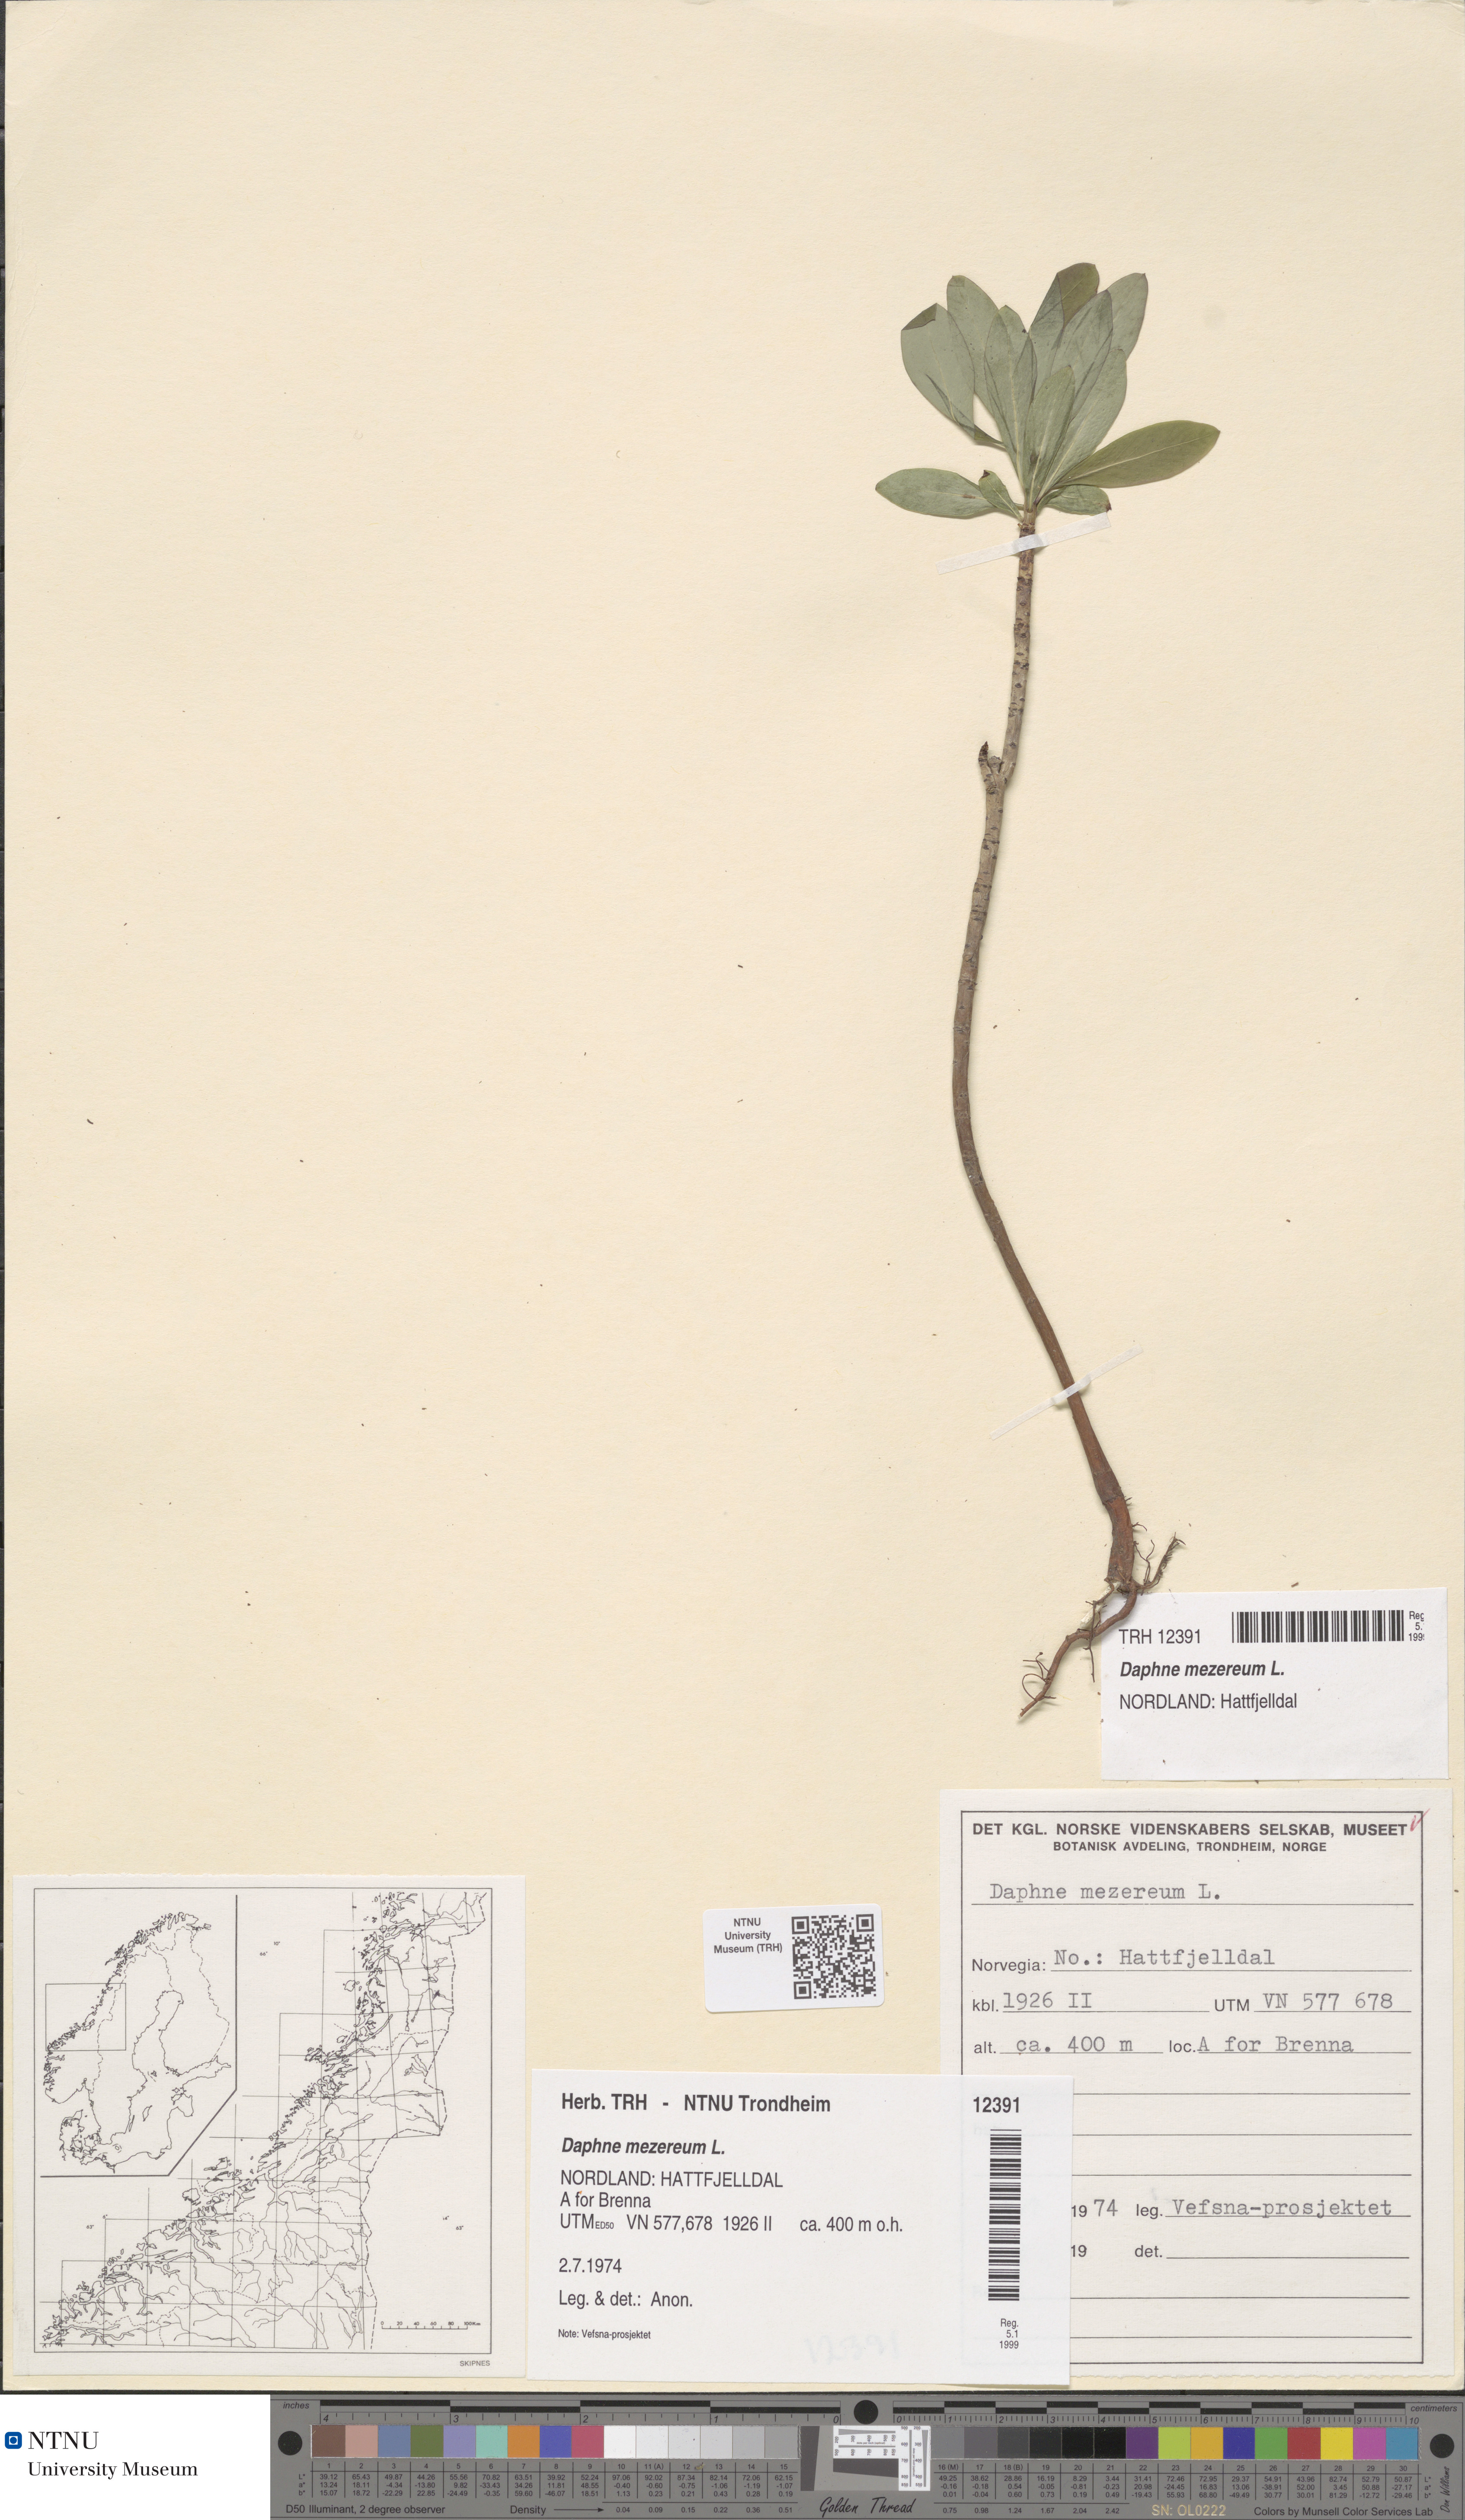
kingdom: Plantae
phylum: Tracheophyta
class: Magnoliopsida
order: Malvales
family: Thymelaeaceae
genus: Daphne
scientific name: Daphne mezereum
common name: Mezereon
